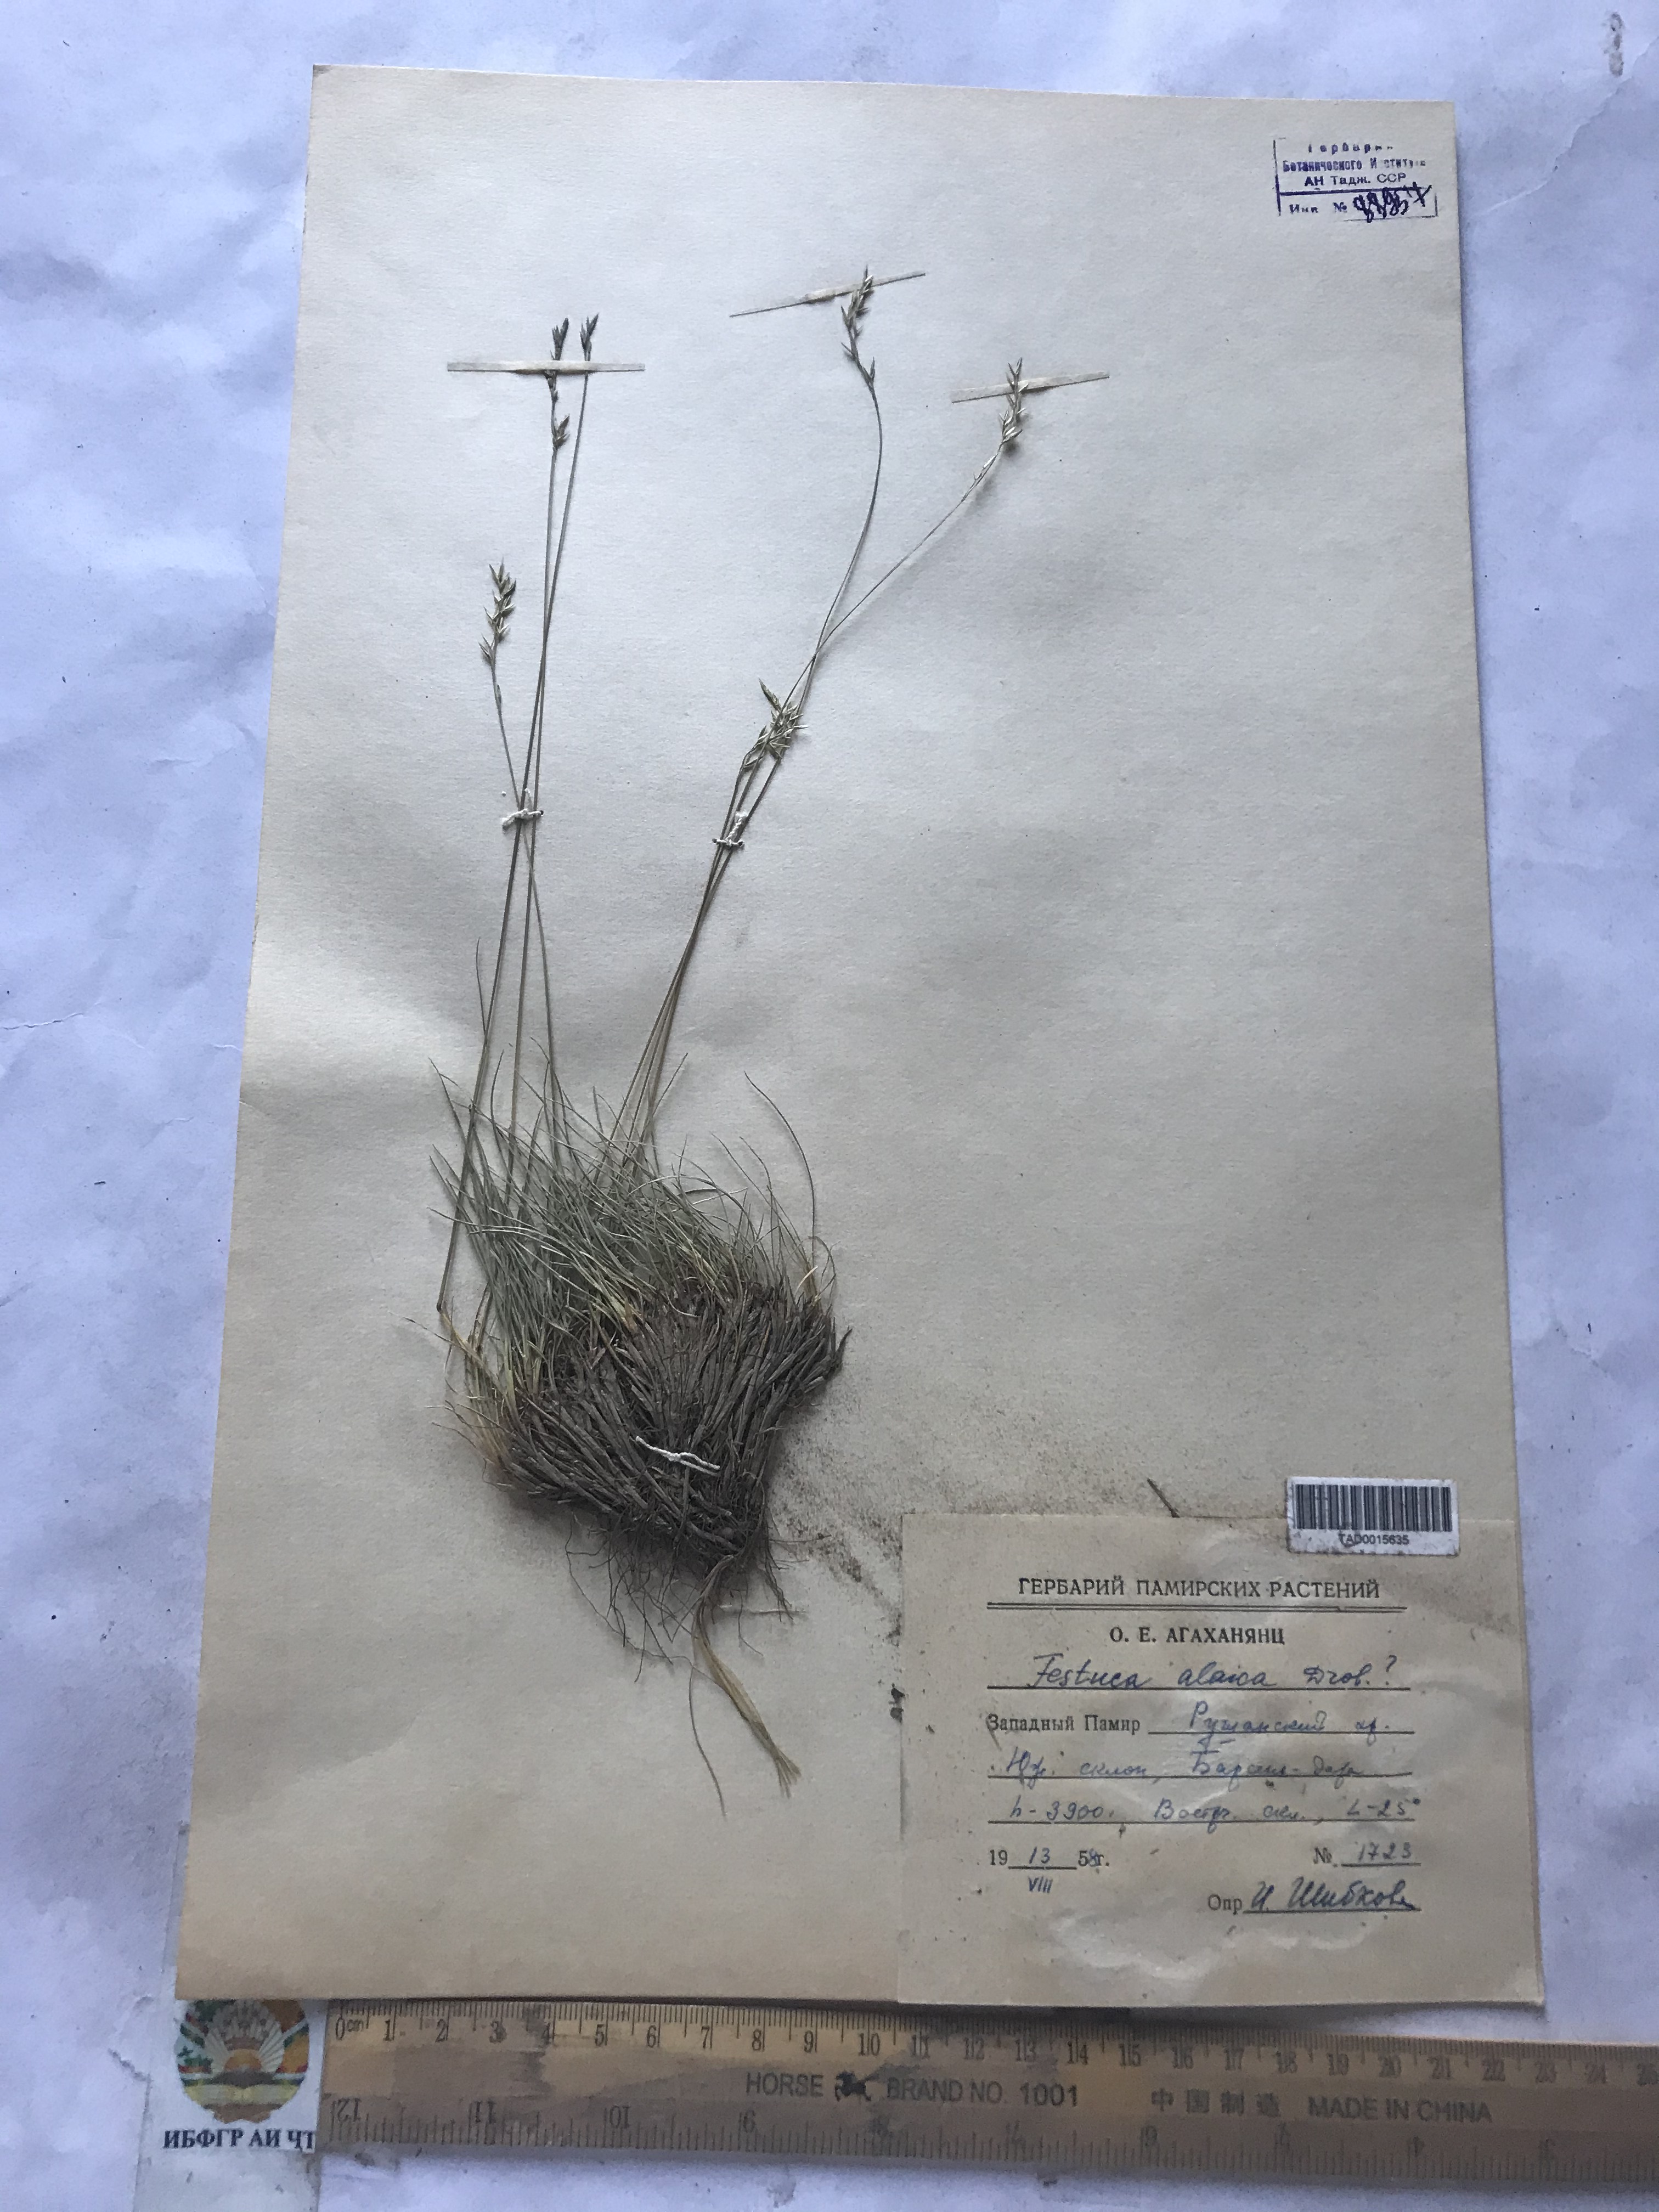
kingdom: Plantae
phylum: Tracheophyta
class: Liliopsida
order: Poales
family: Poaceae
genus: Festuca
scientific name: Festuca alaica
